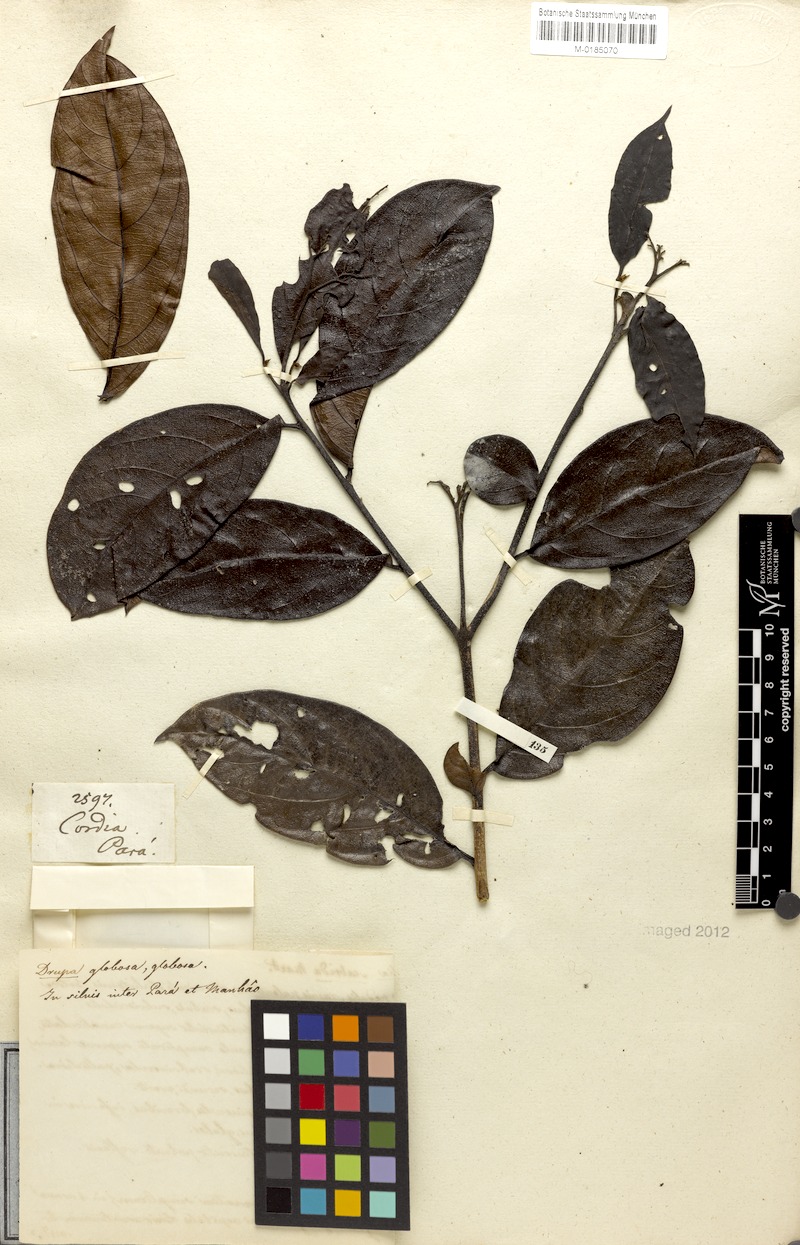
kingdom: Plantae
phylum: Tracheophyta
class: Magnoliopsida
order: Boraginales
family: Cordiaceae
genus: Cordia
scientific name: Cordia exaltata
